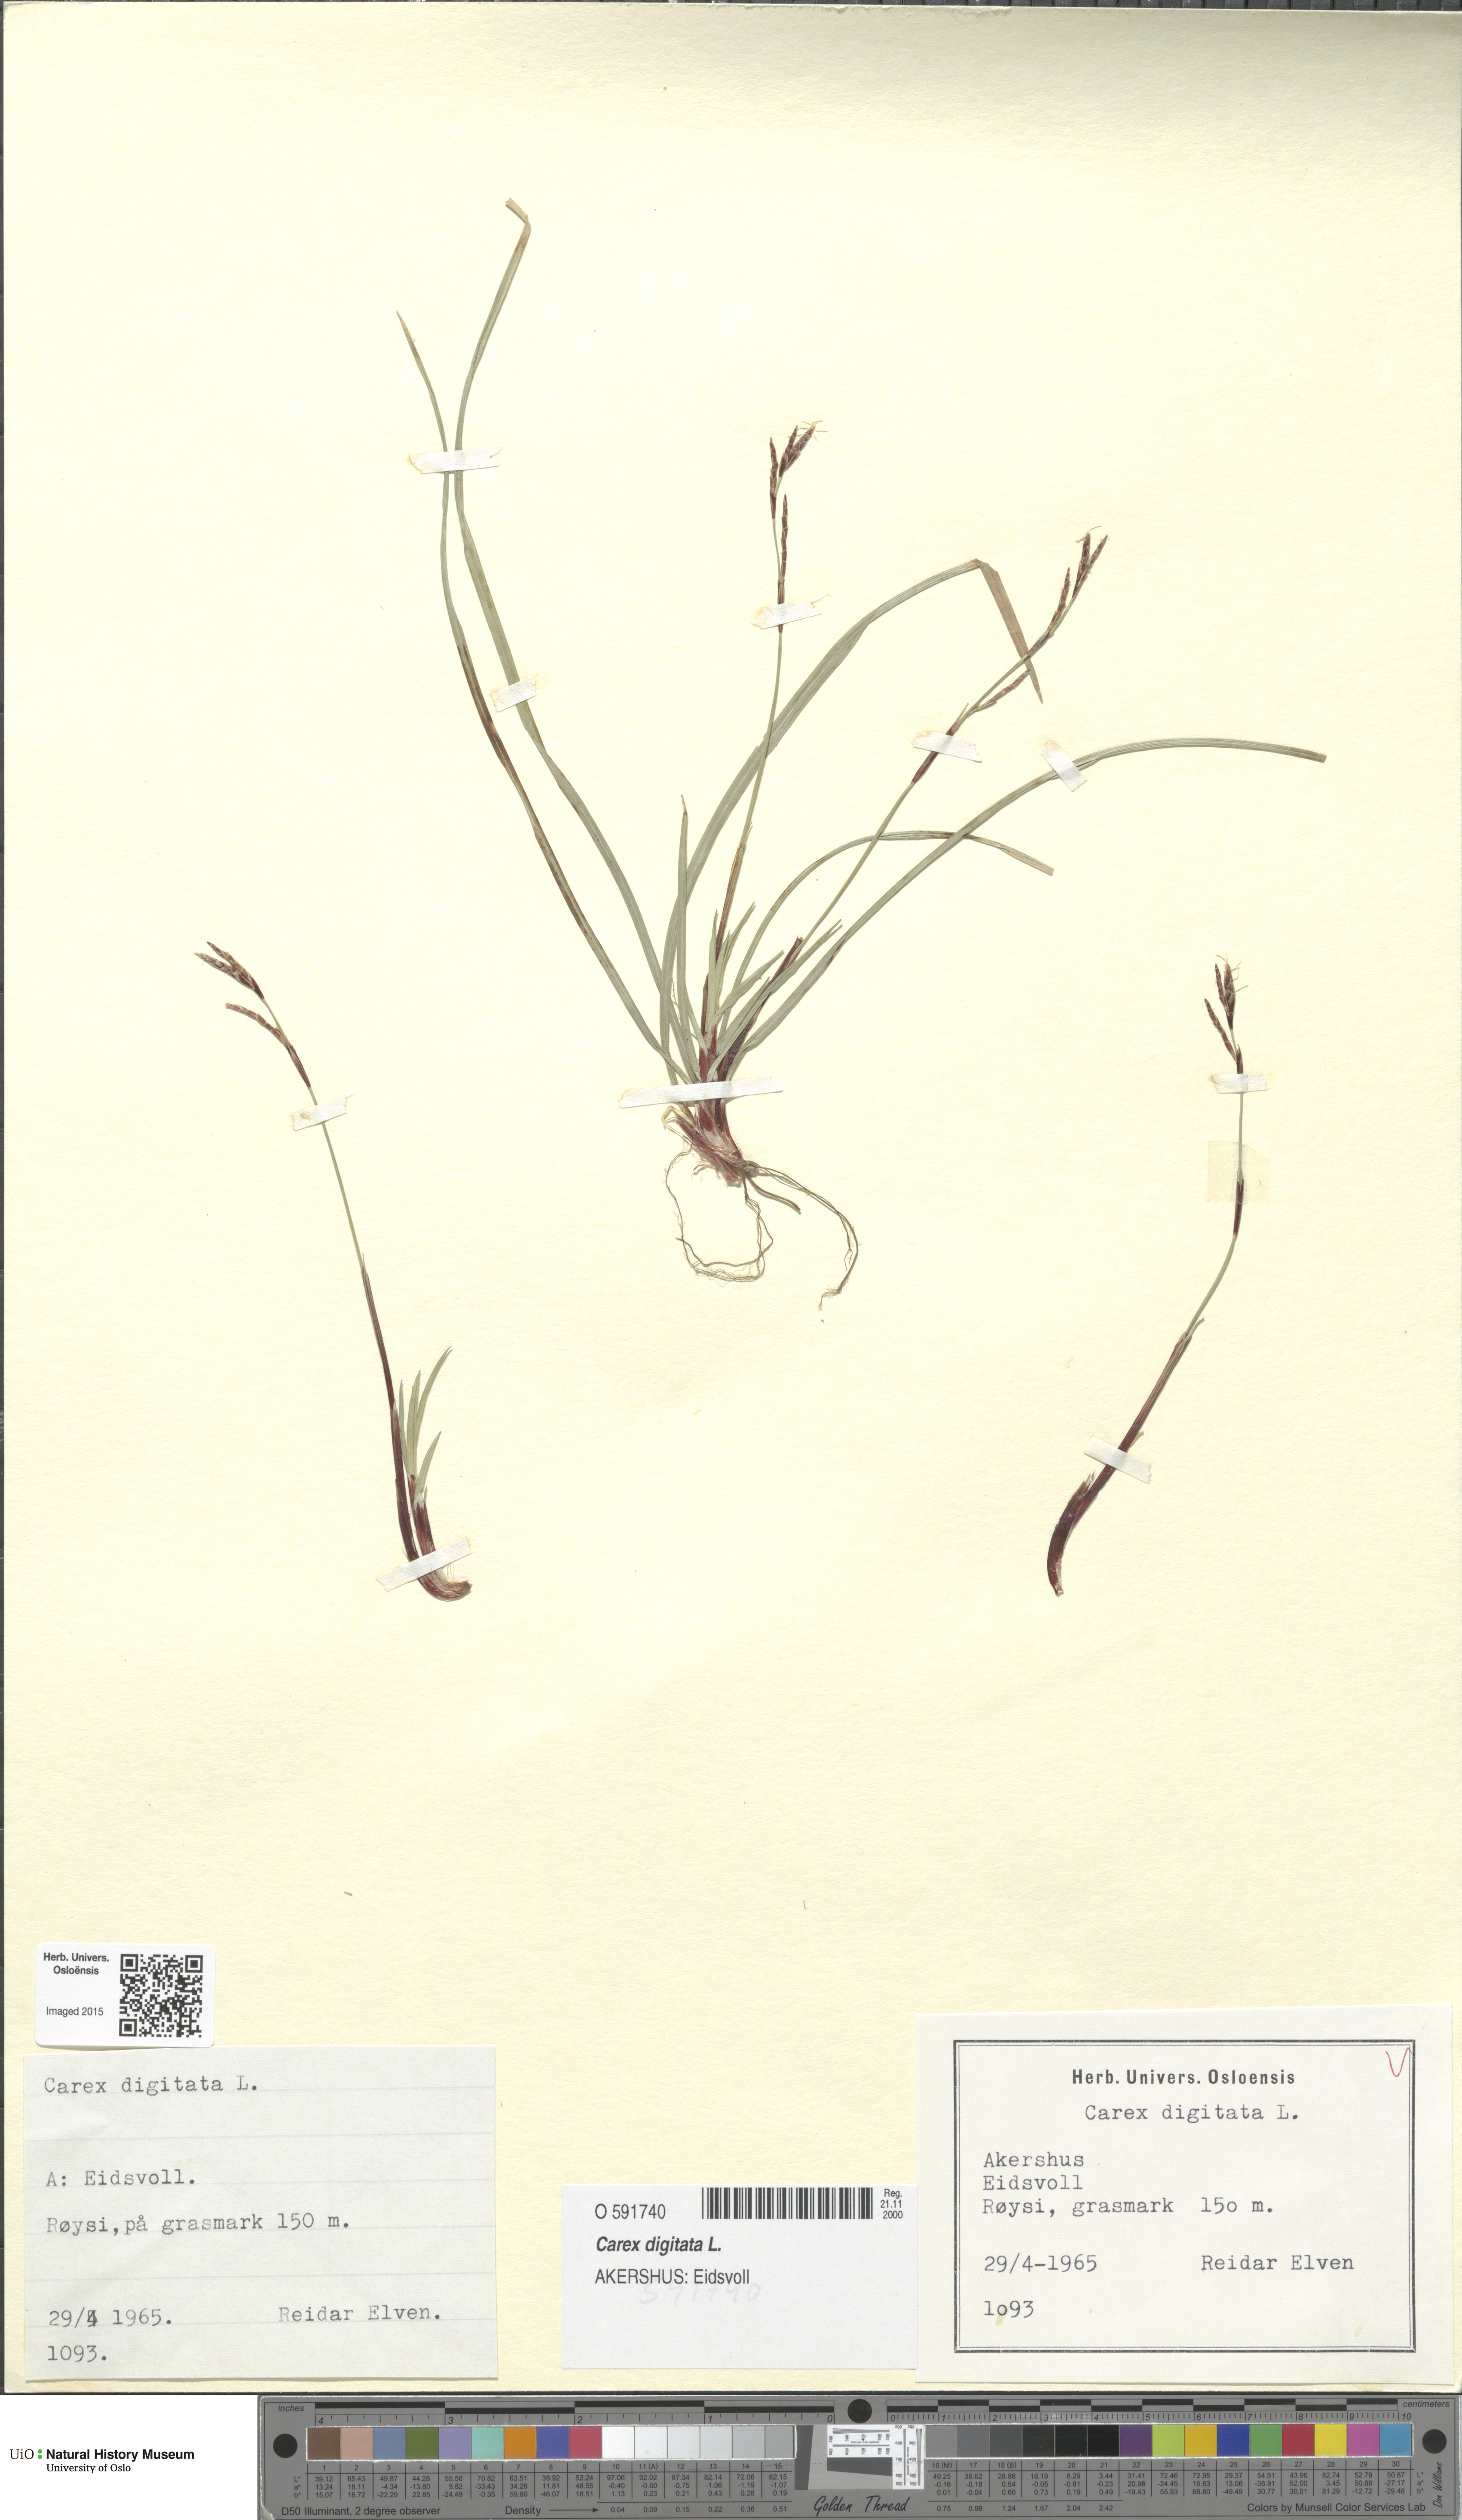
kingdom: Plantae
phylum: Tracheophyta
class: Liliopsida
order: Poales
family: Cyperaceae
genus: Carex
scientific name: Carex digitata
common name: Fingered sedge
